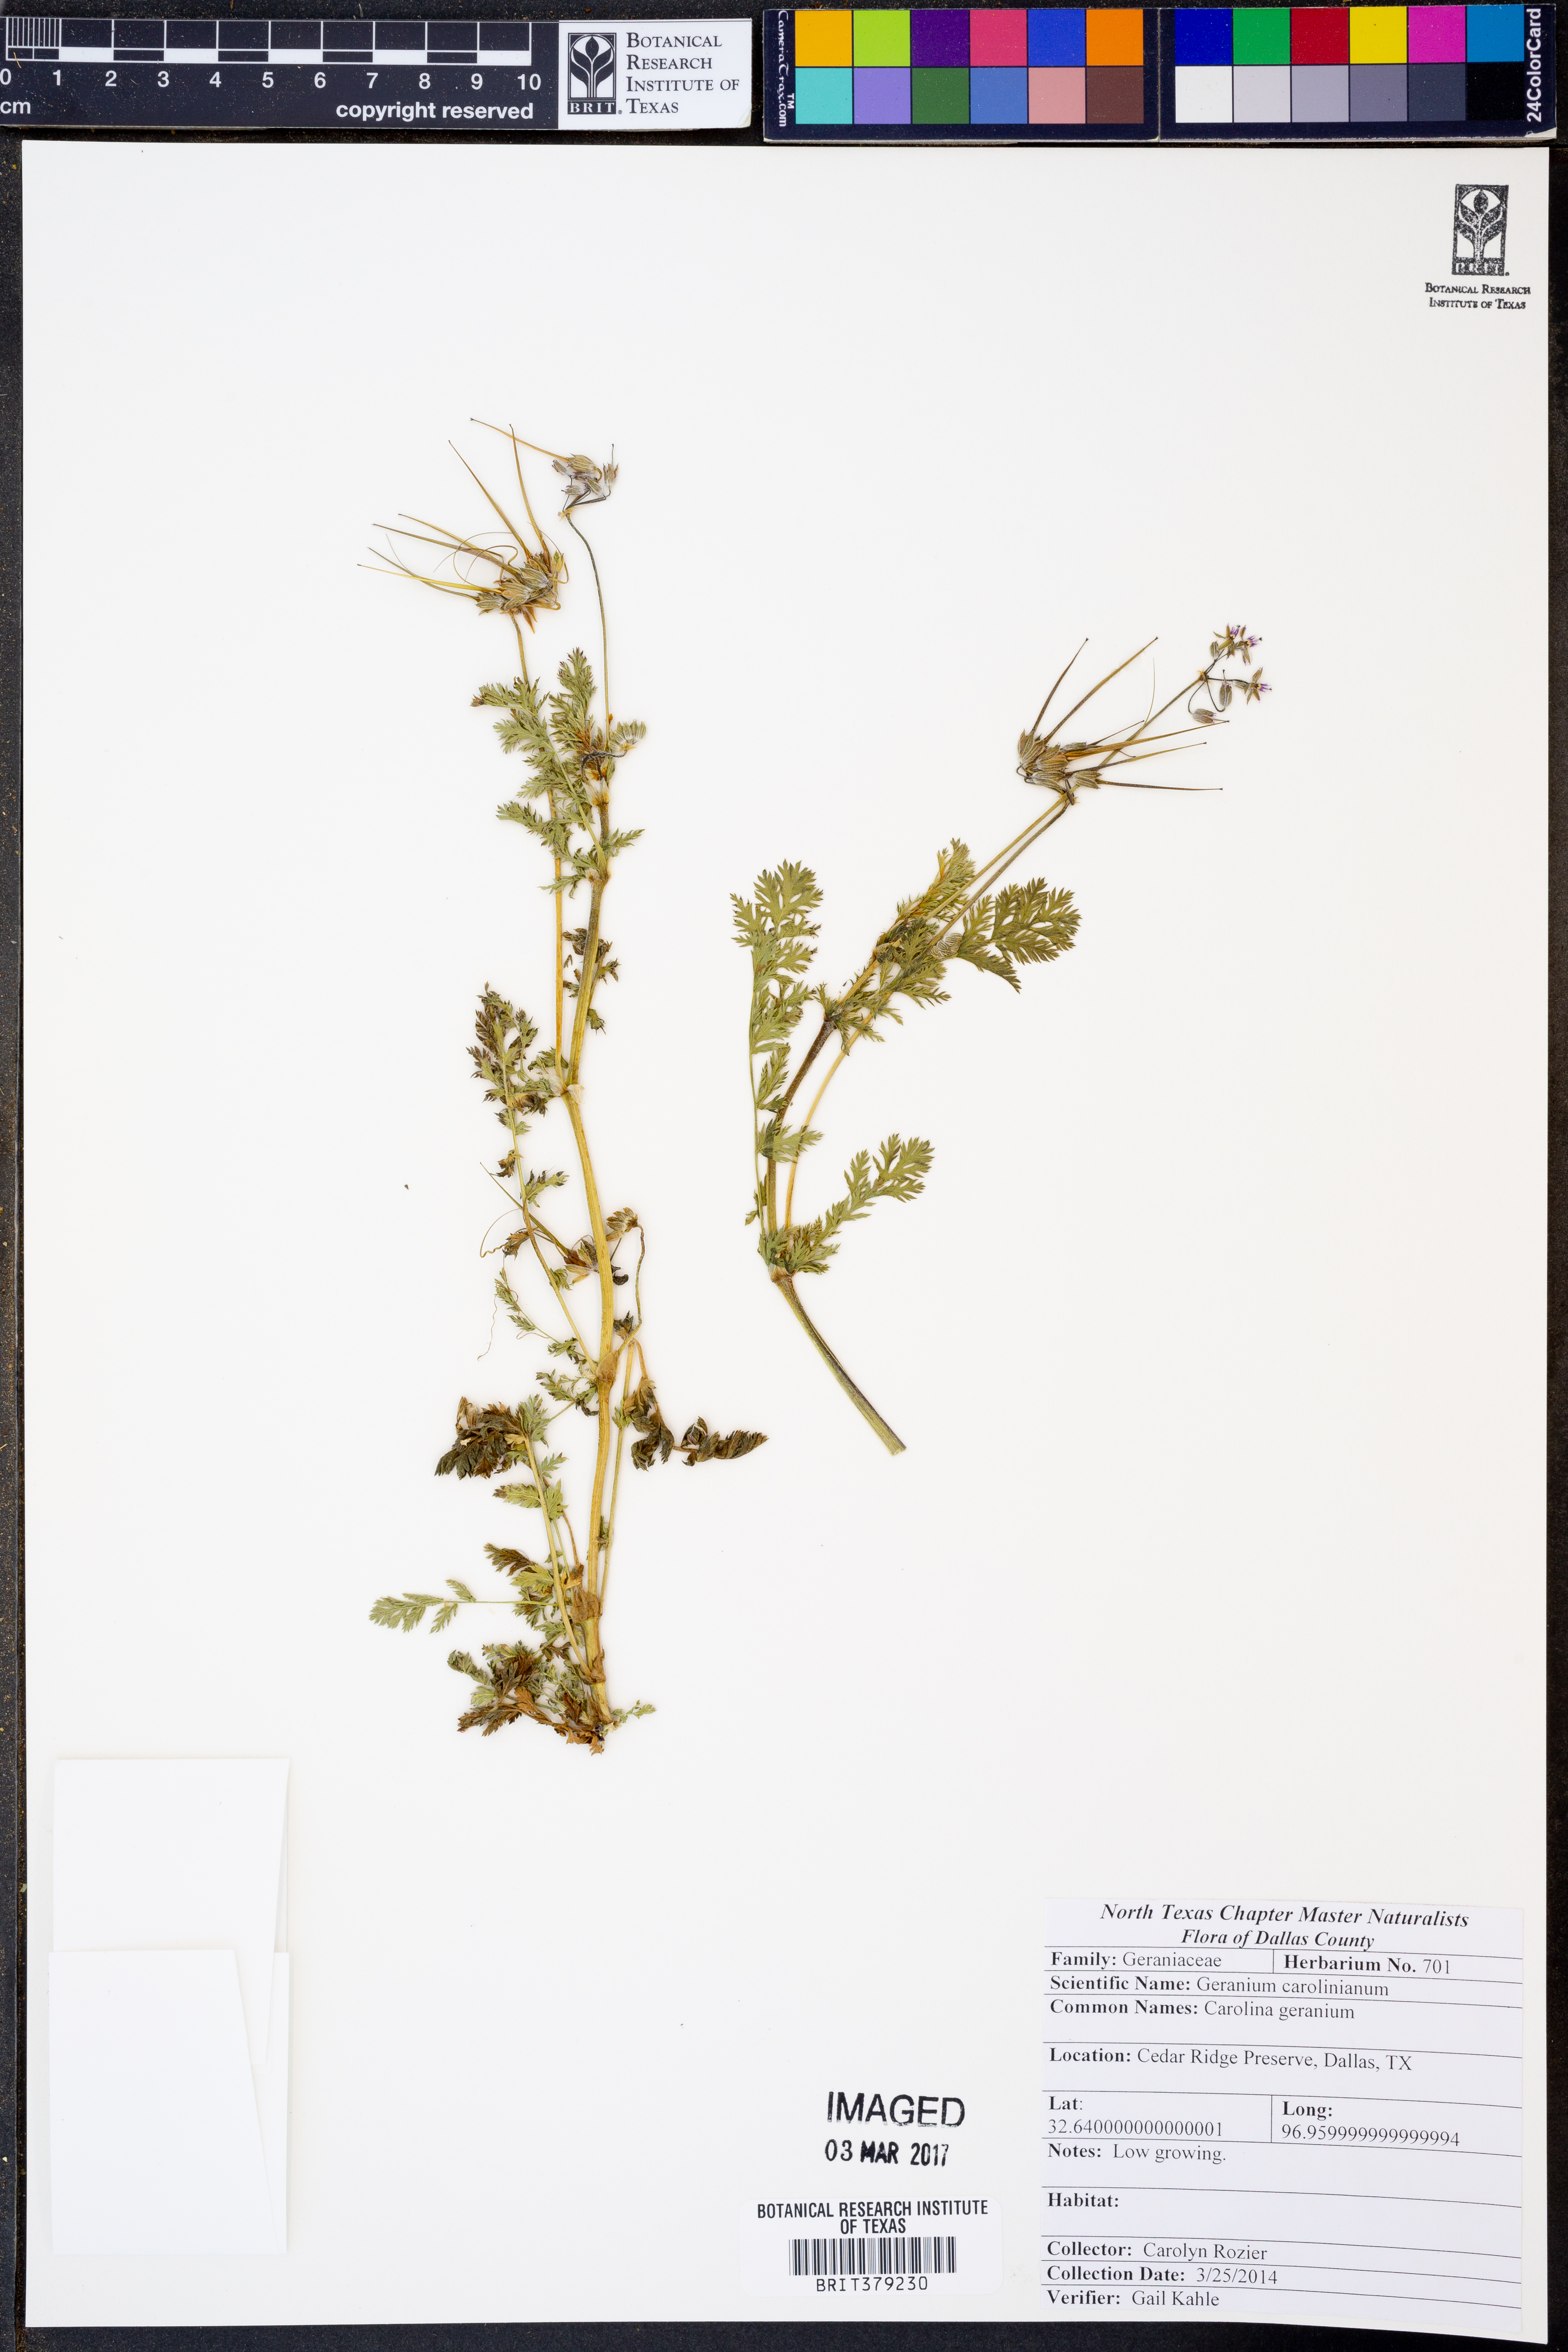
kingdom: Plantae
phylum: Tracheophyta
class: Magnoliopsida
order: Geraniales
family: Geraniaceae
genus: Geranium
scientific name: Geranium carolinianum
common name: Carolina crane's-bill
